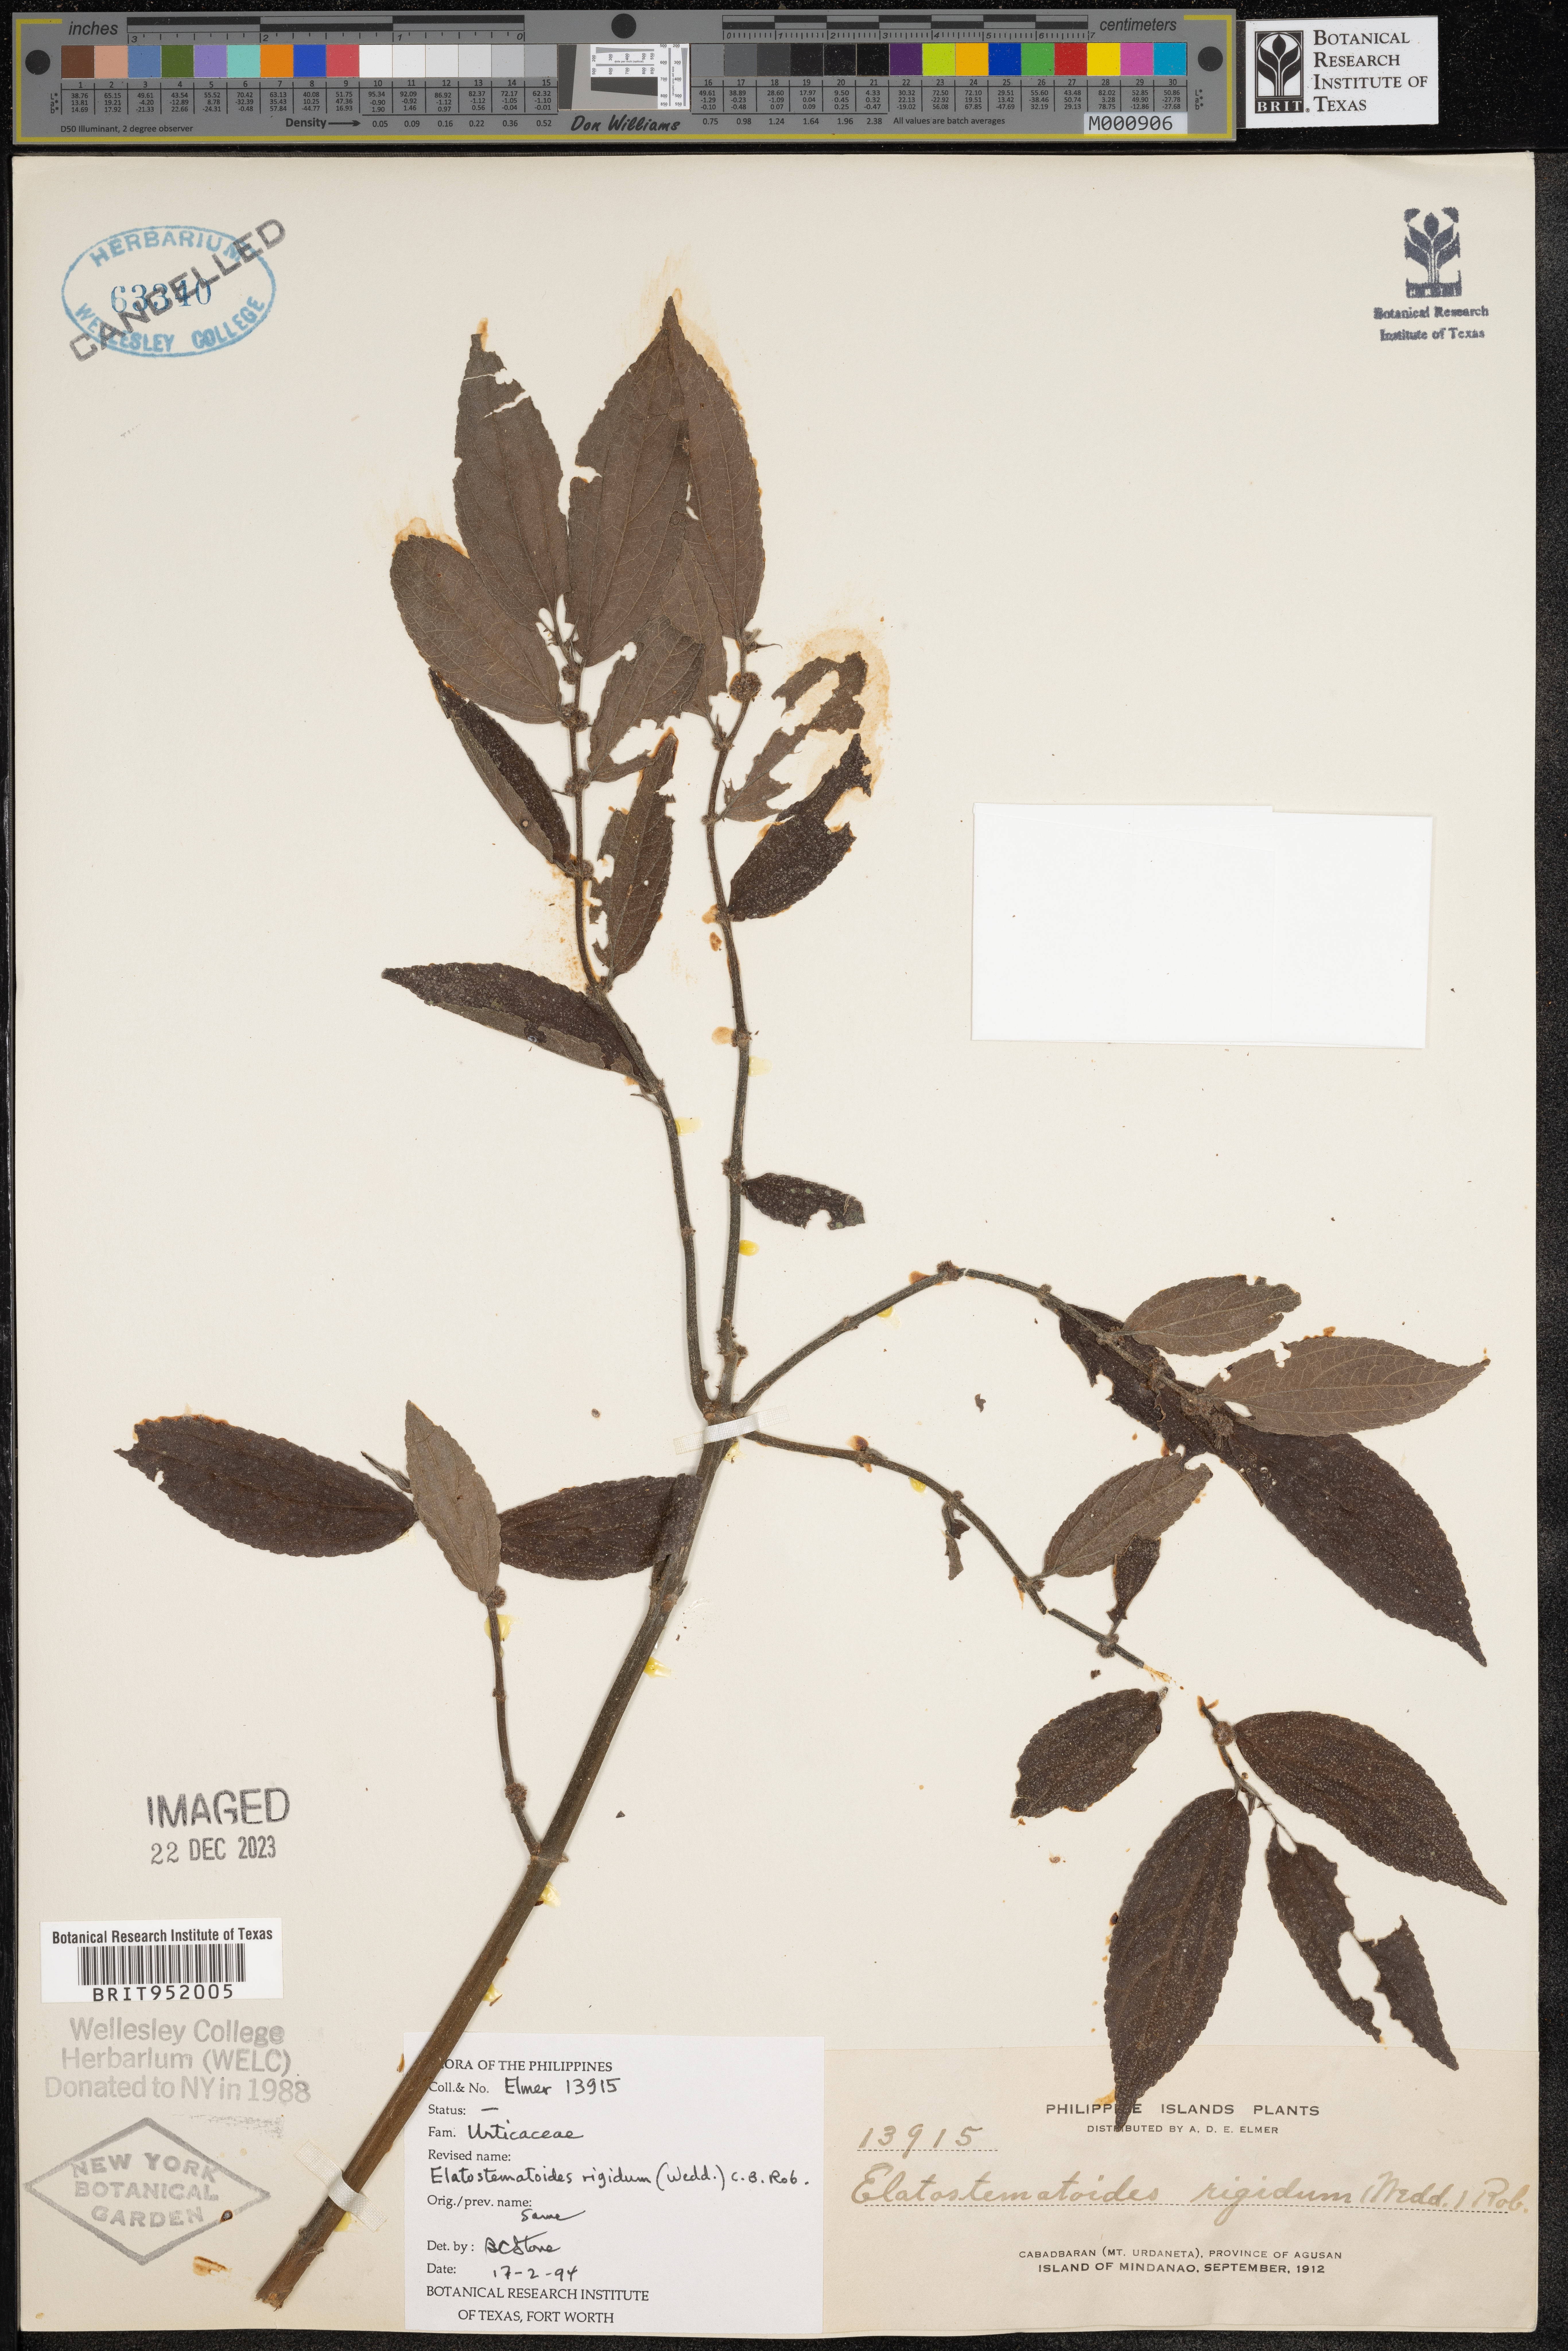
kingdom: Plantae
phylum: Tracheophyta
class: Magnoliopsida
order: Rosales
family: Urticaceae
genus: Elatostema
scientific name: Elatostema
